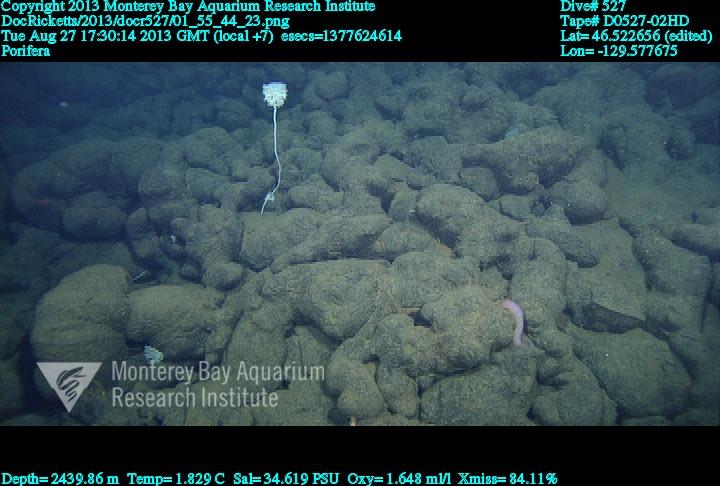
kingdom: Animalia
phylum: Porifera
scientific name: Porifera
